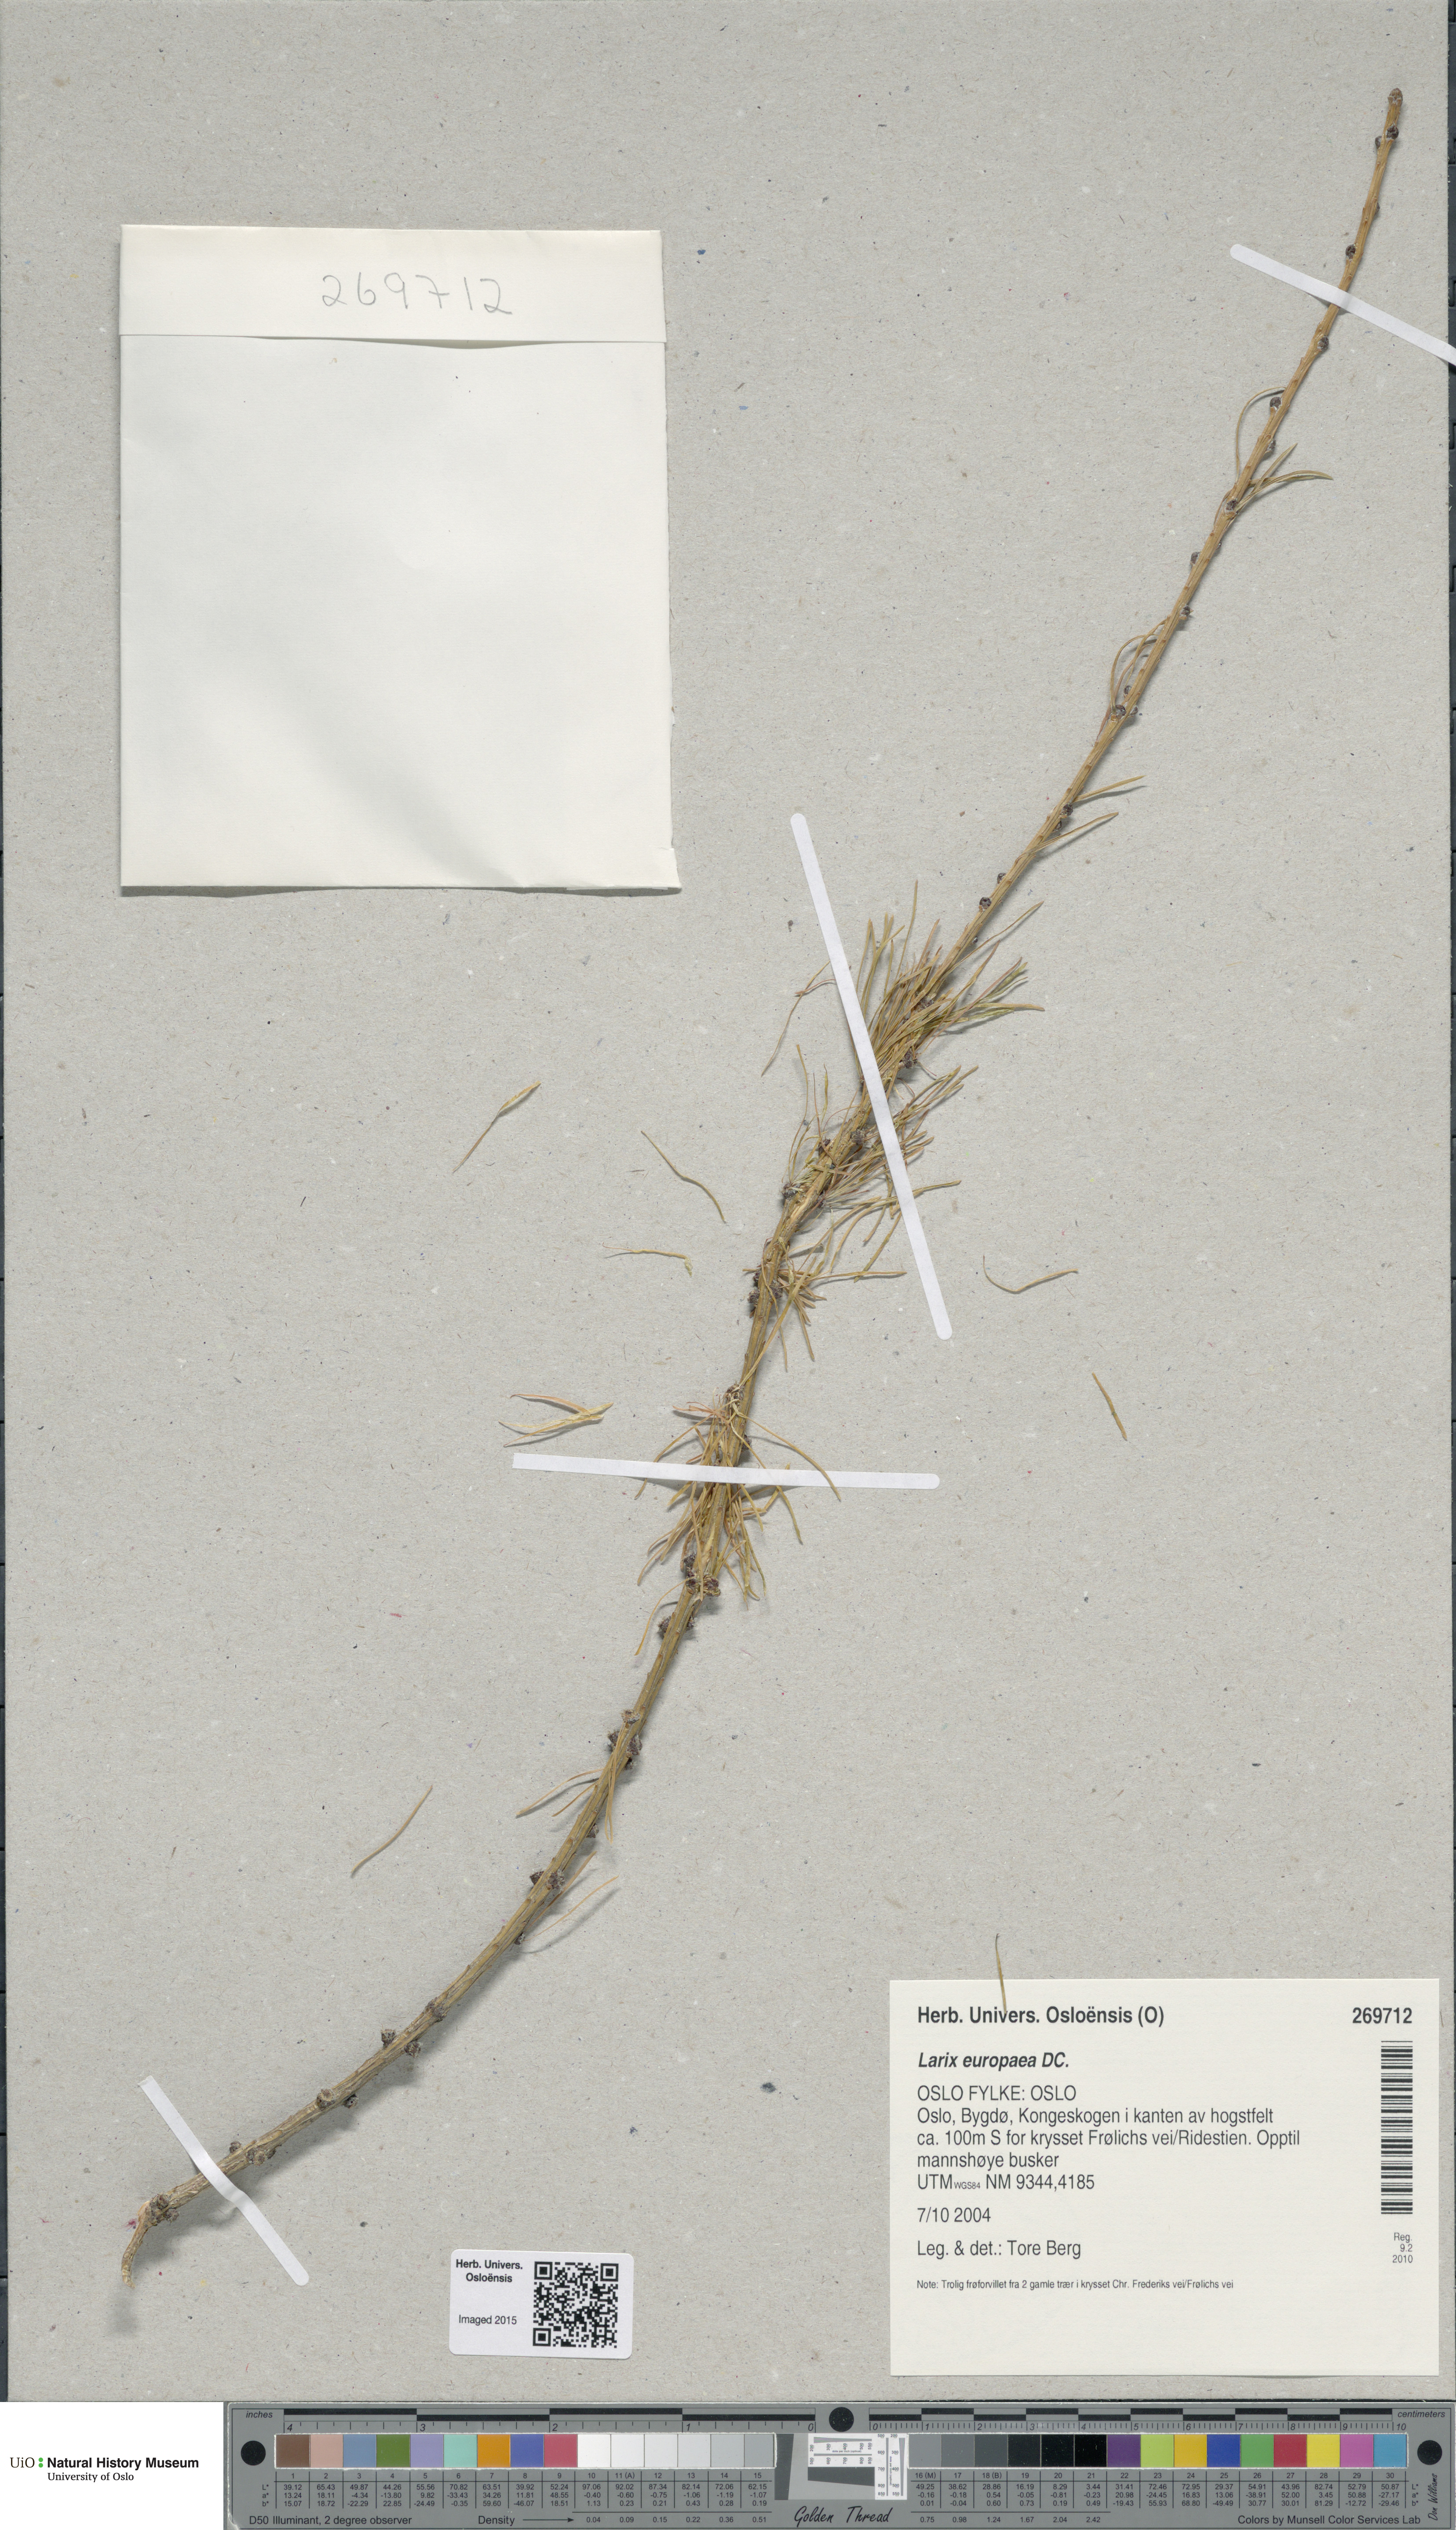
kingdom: Plantae
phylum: Tracheophyta
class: Pinopsida
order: Pinales
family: Pinaceae
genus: Larix
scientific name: Larix decidua
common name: European larch
